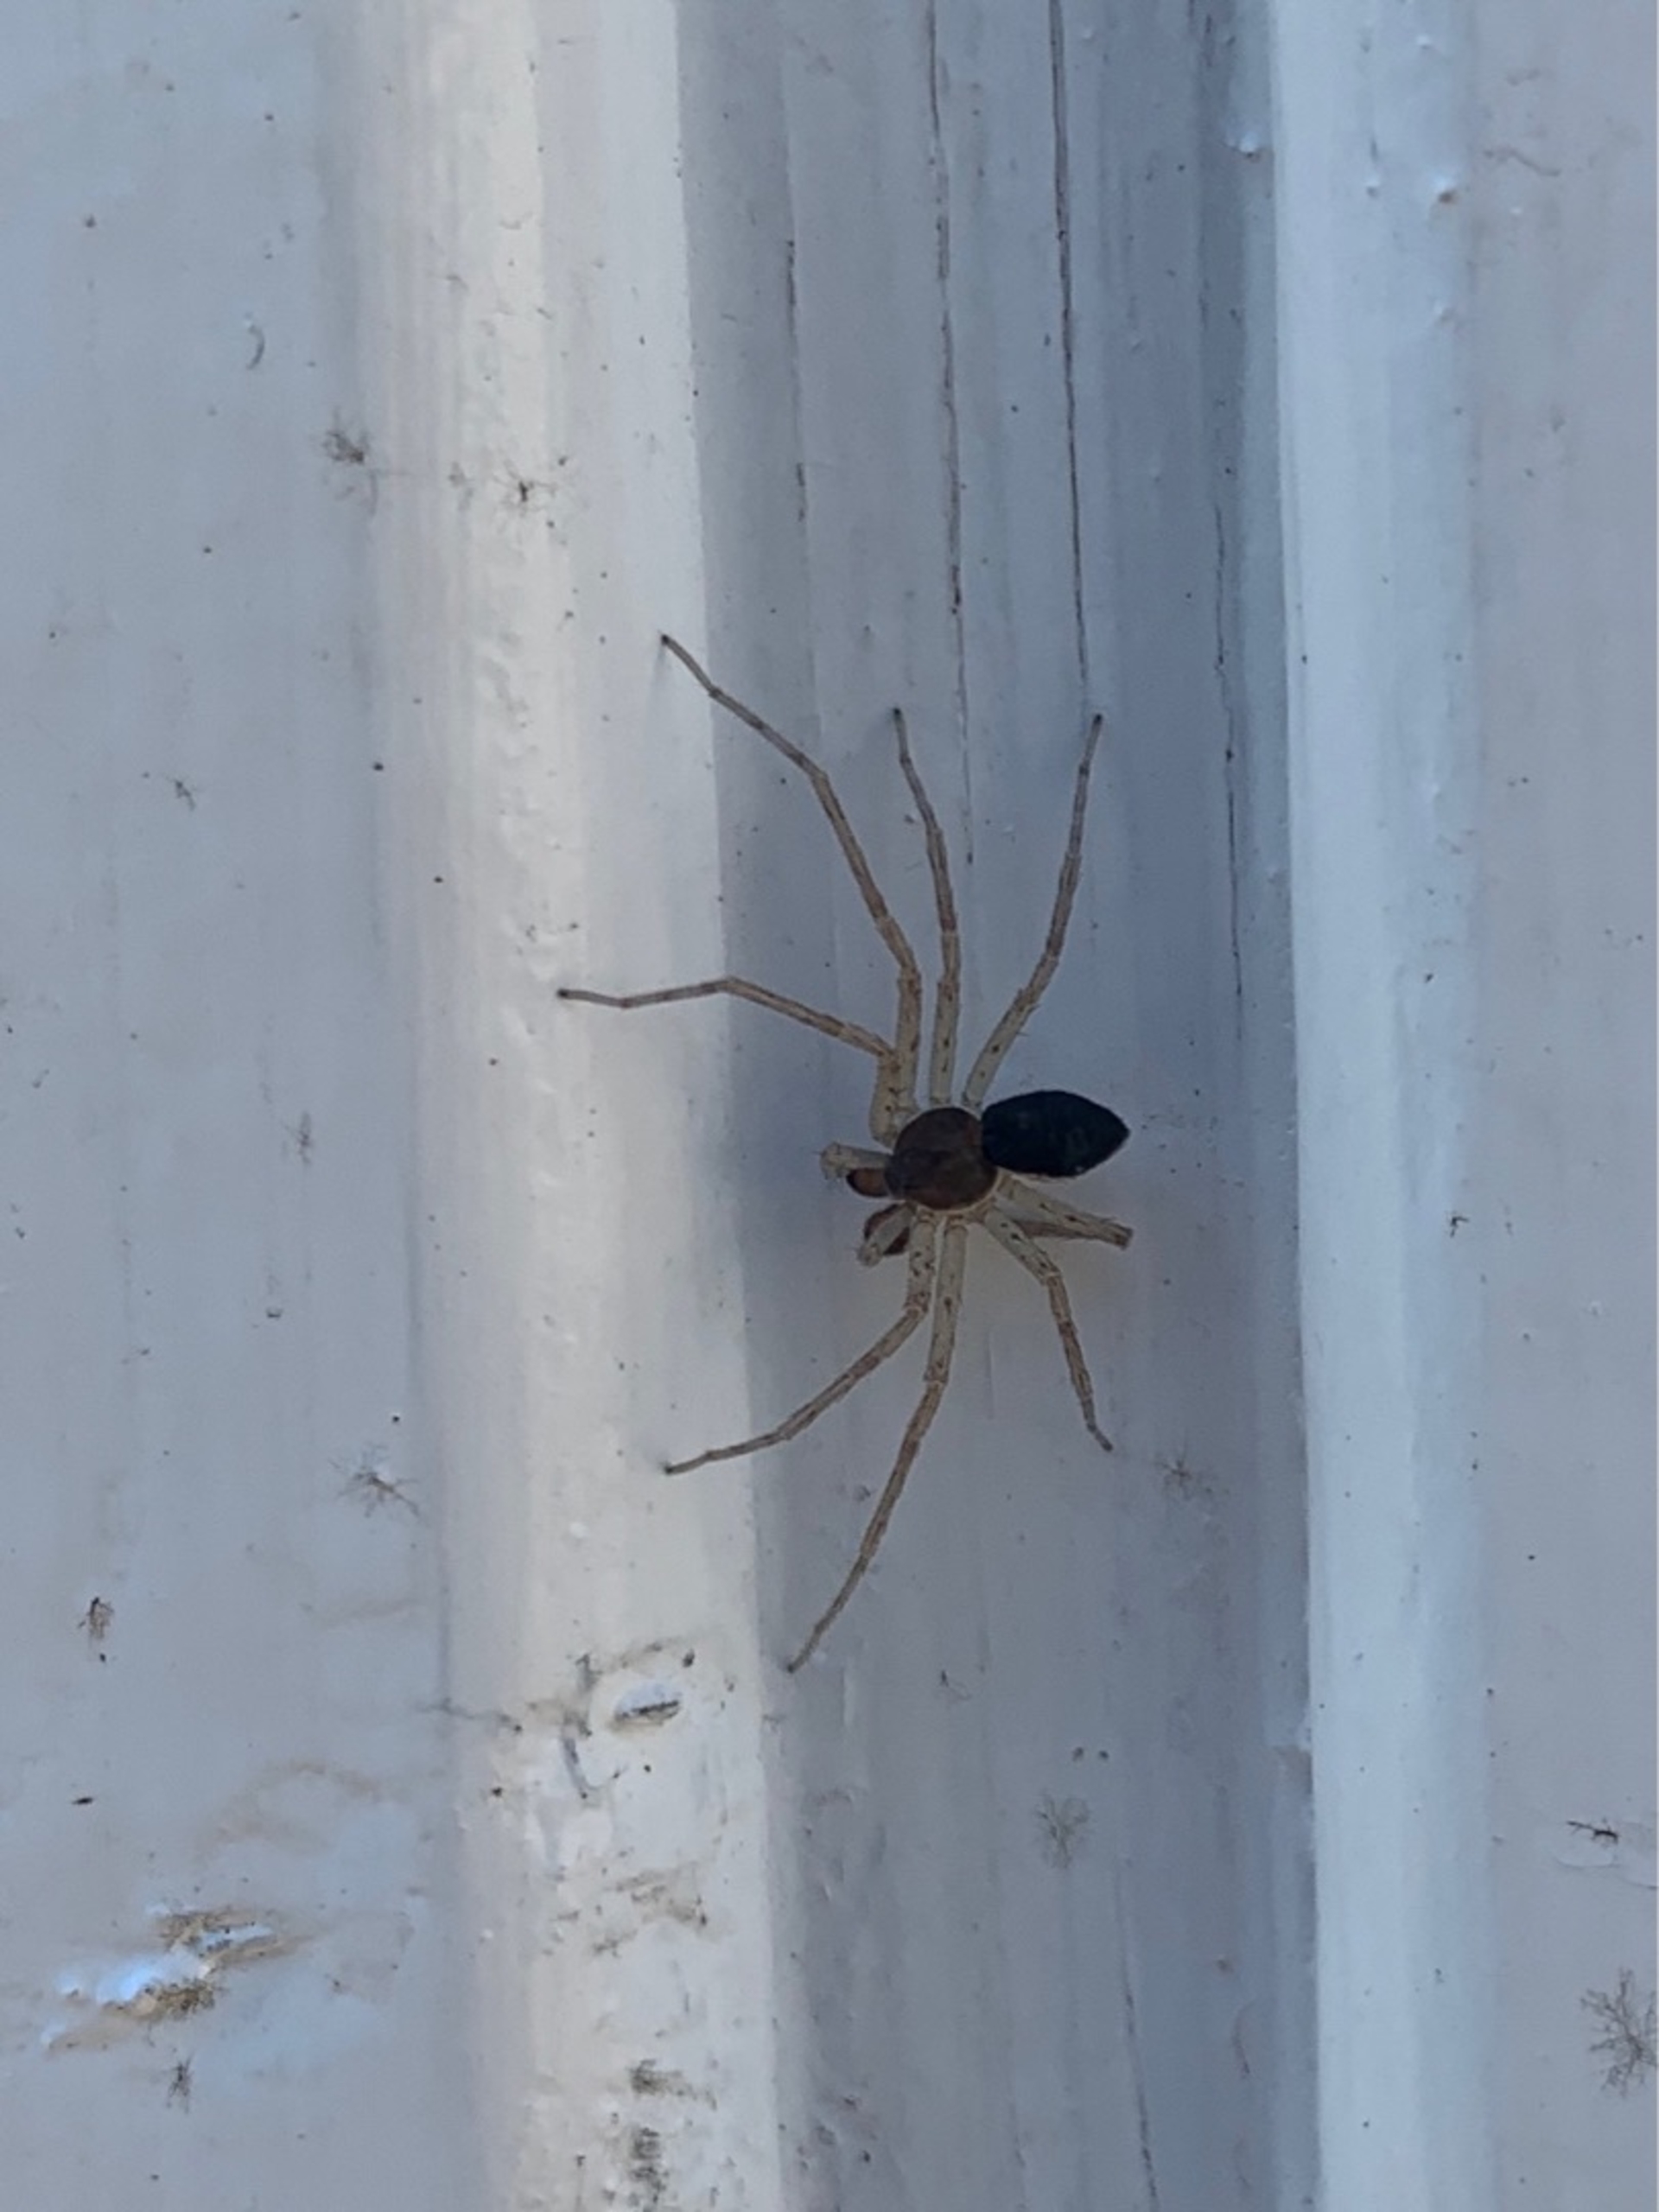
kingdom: Animalia
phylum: Arthropoda
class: Arachnida
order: Araneae
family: Philodromidae
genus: Philodromus
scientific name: Philodromus dispar
